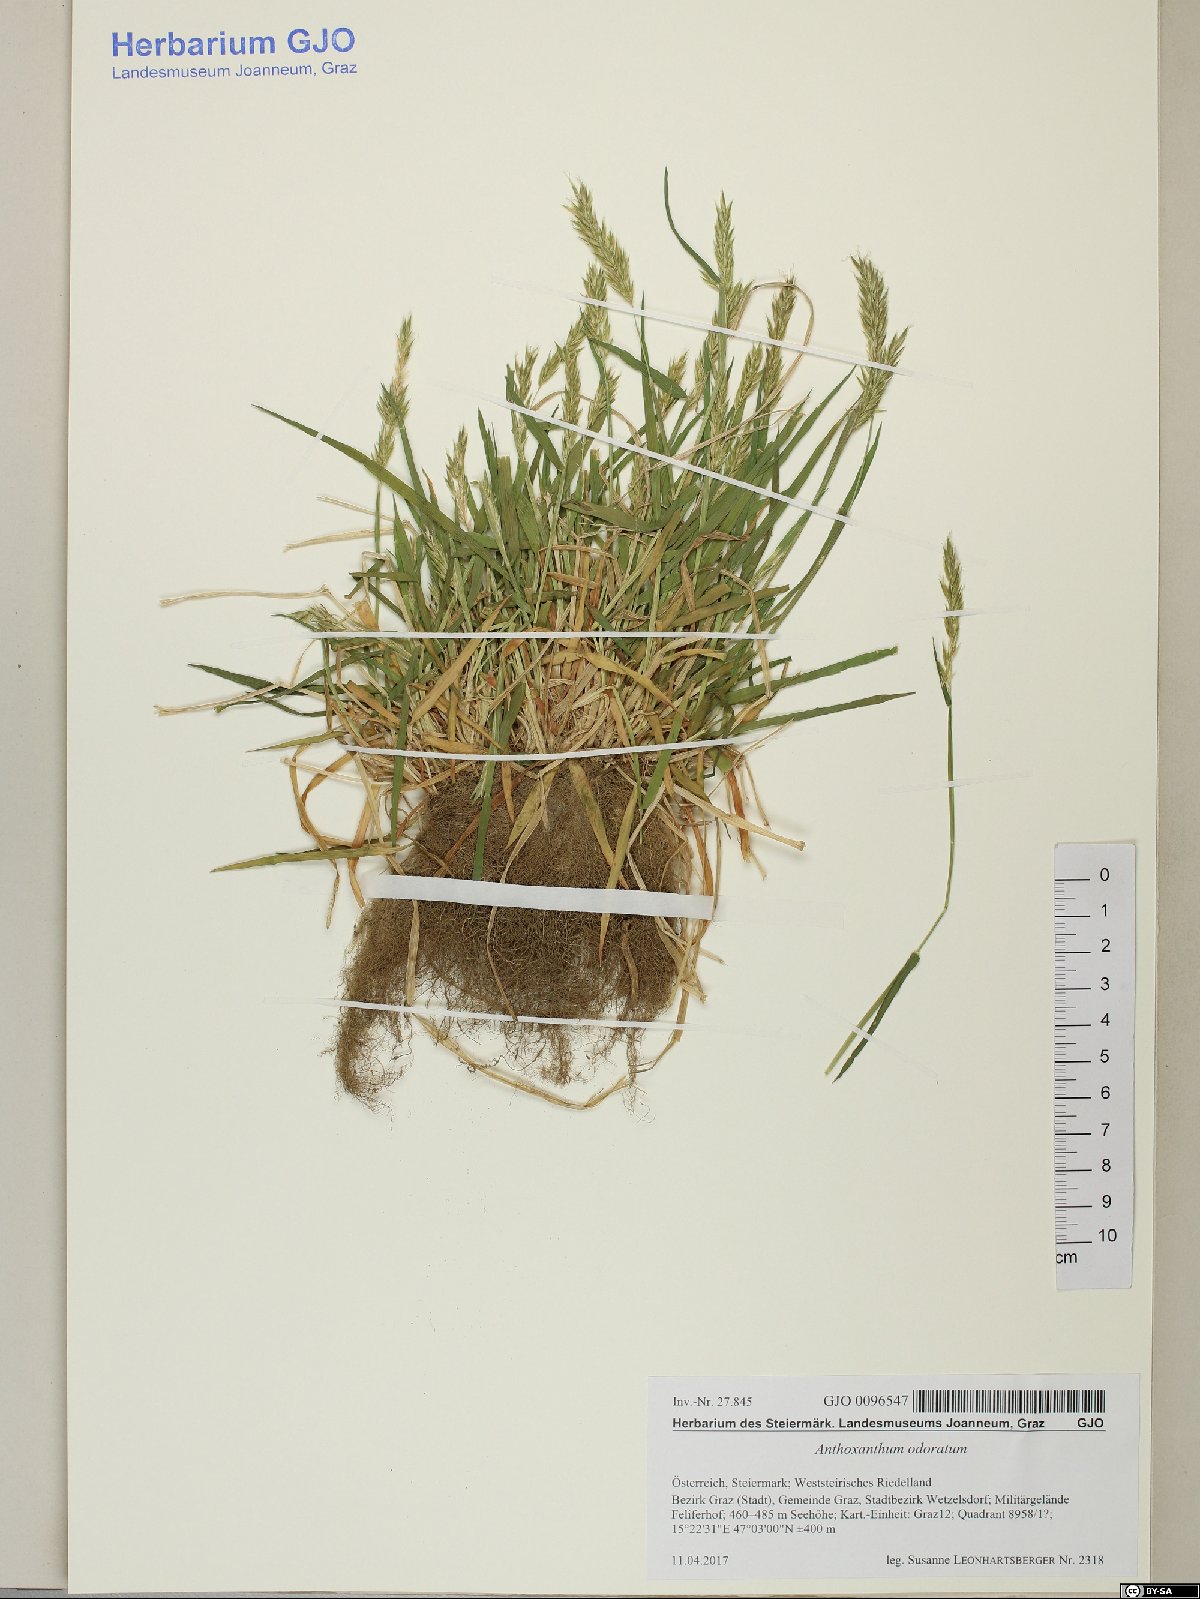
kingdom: Plantae
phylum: Tracheophyta
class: Liliopsida
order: Poales
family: Poaceae
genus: Anthoxanthum
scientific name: Anthoxanthum odoratum
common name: Sweet vernalgrass
